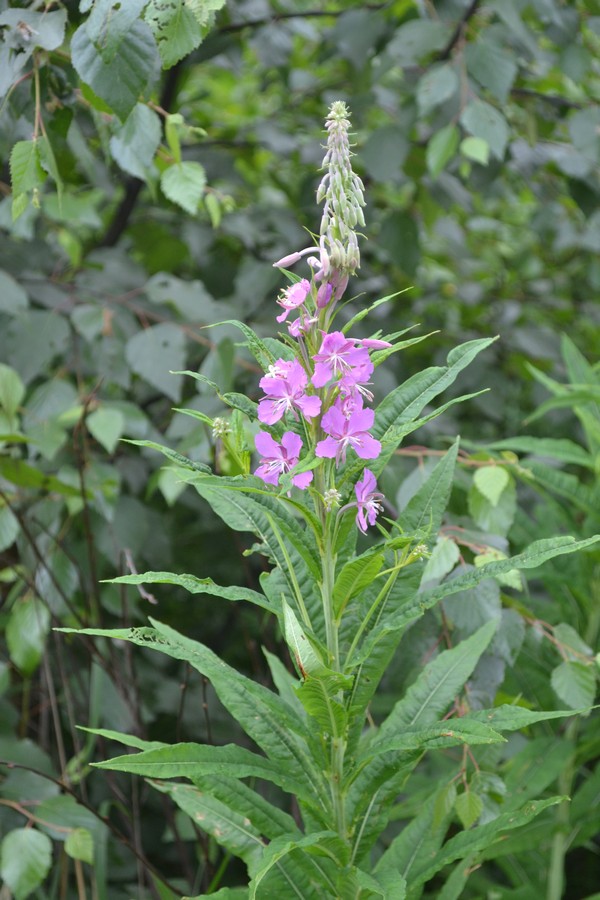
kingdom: Plantae
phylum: Tracheophyta
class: Magnoliopsida
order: Myrtales
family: Onagraceae
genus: Chamaenerion
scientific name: Chamaenerion angustifolium
